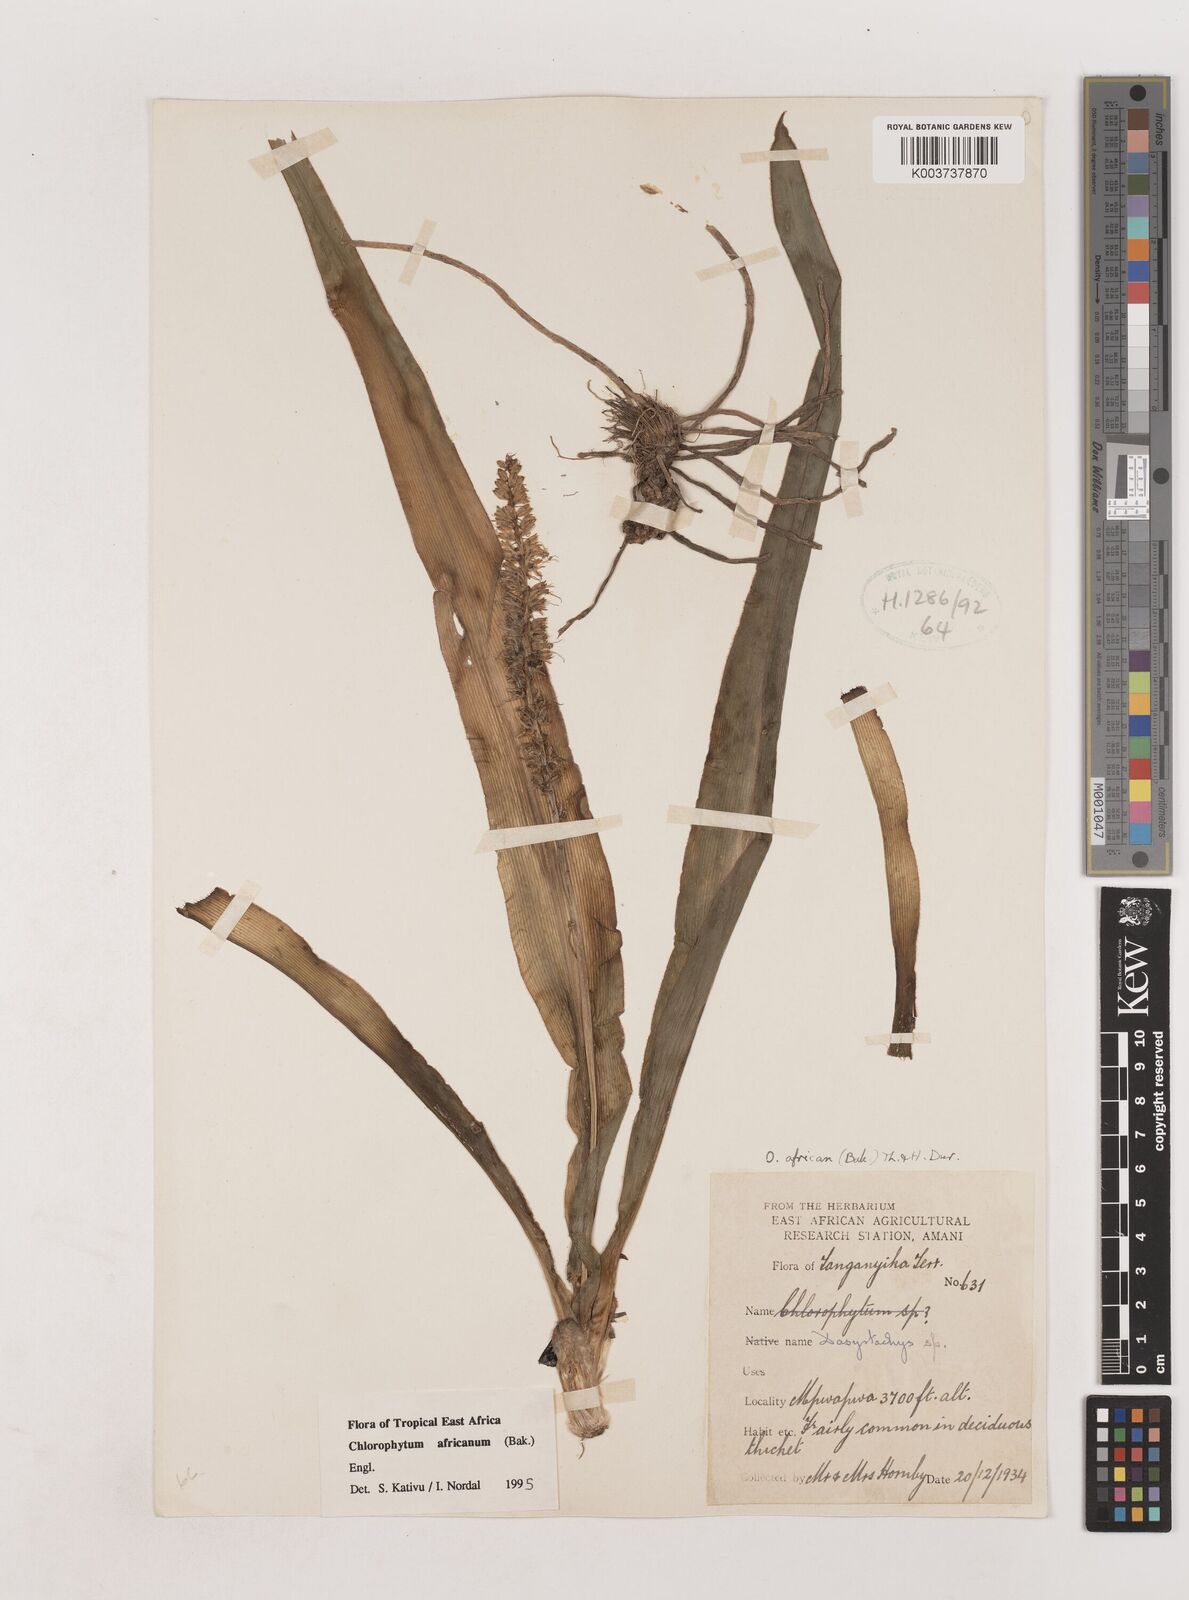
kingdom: Plantae
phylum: Tracheophyta
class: Liliopsida
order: Asparagales
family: Asparagaceae
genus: Chlorophytum
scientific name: Chlorophytum africanum
